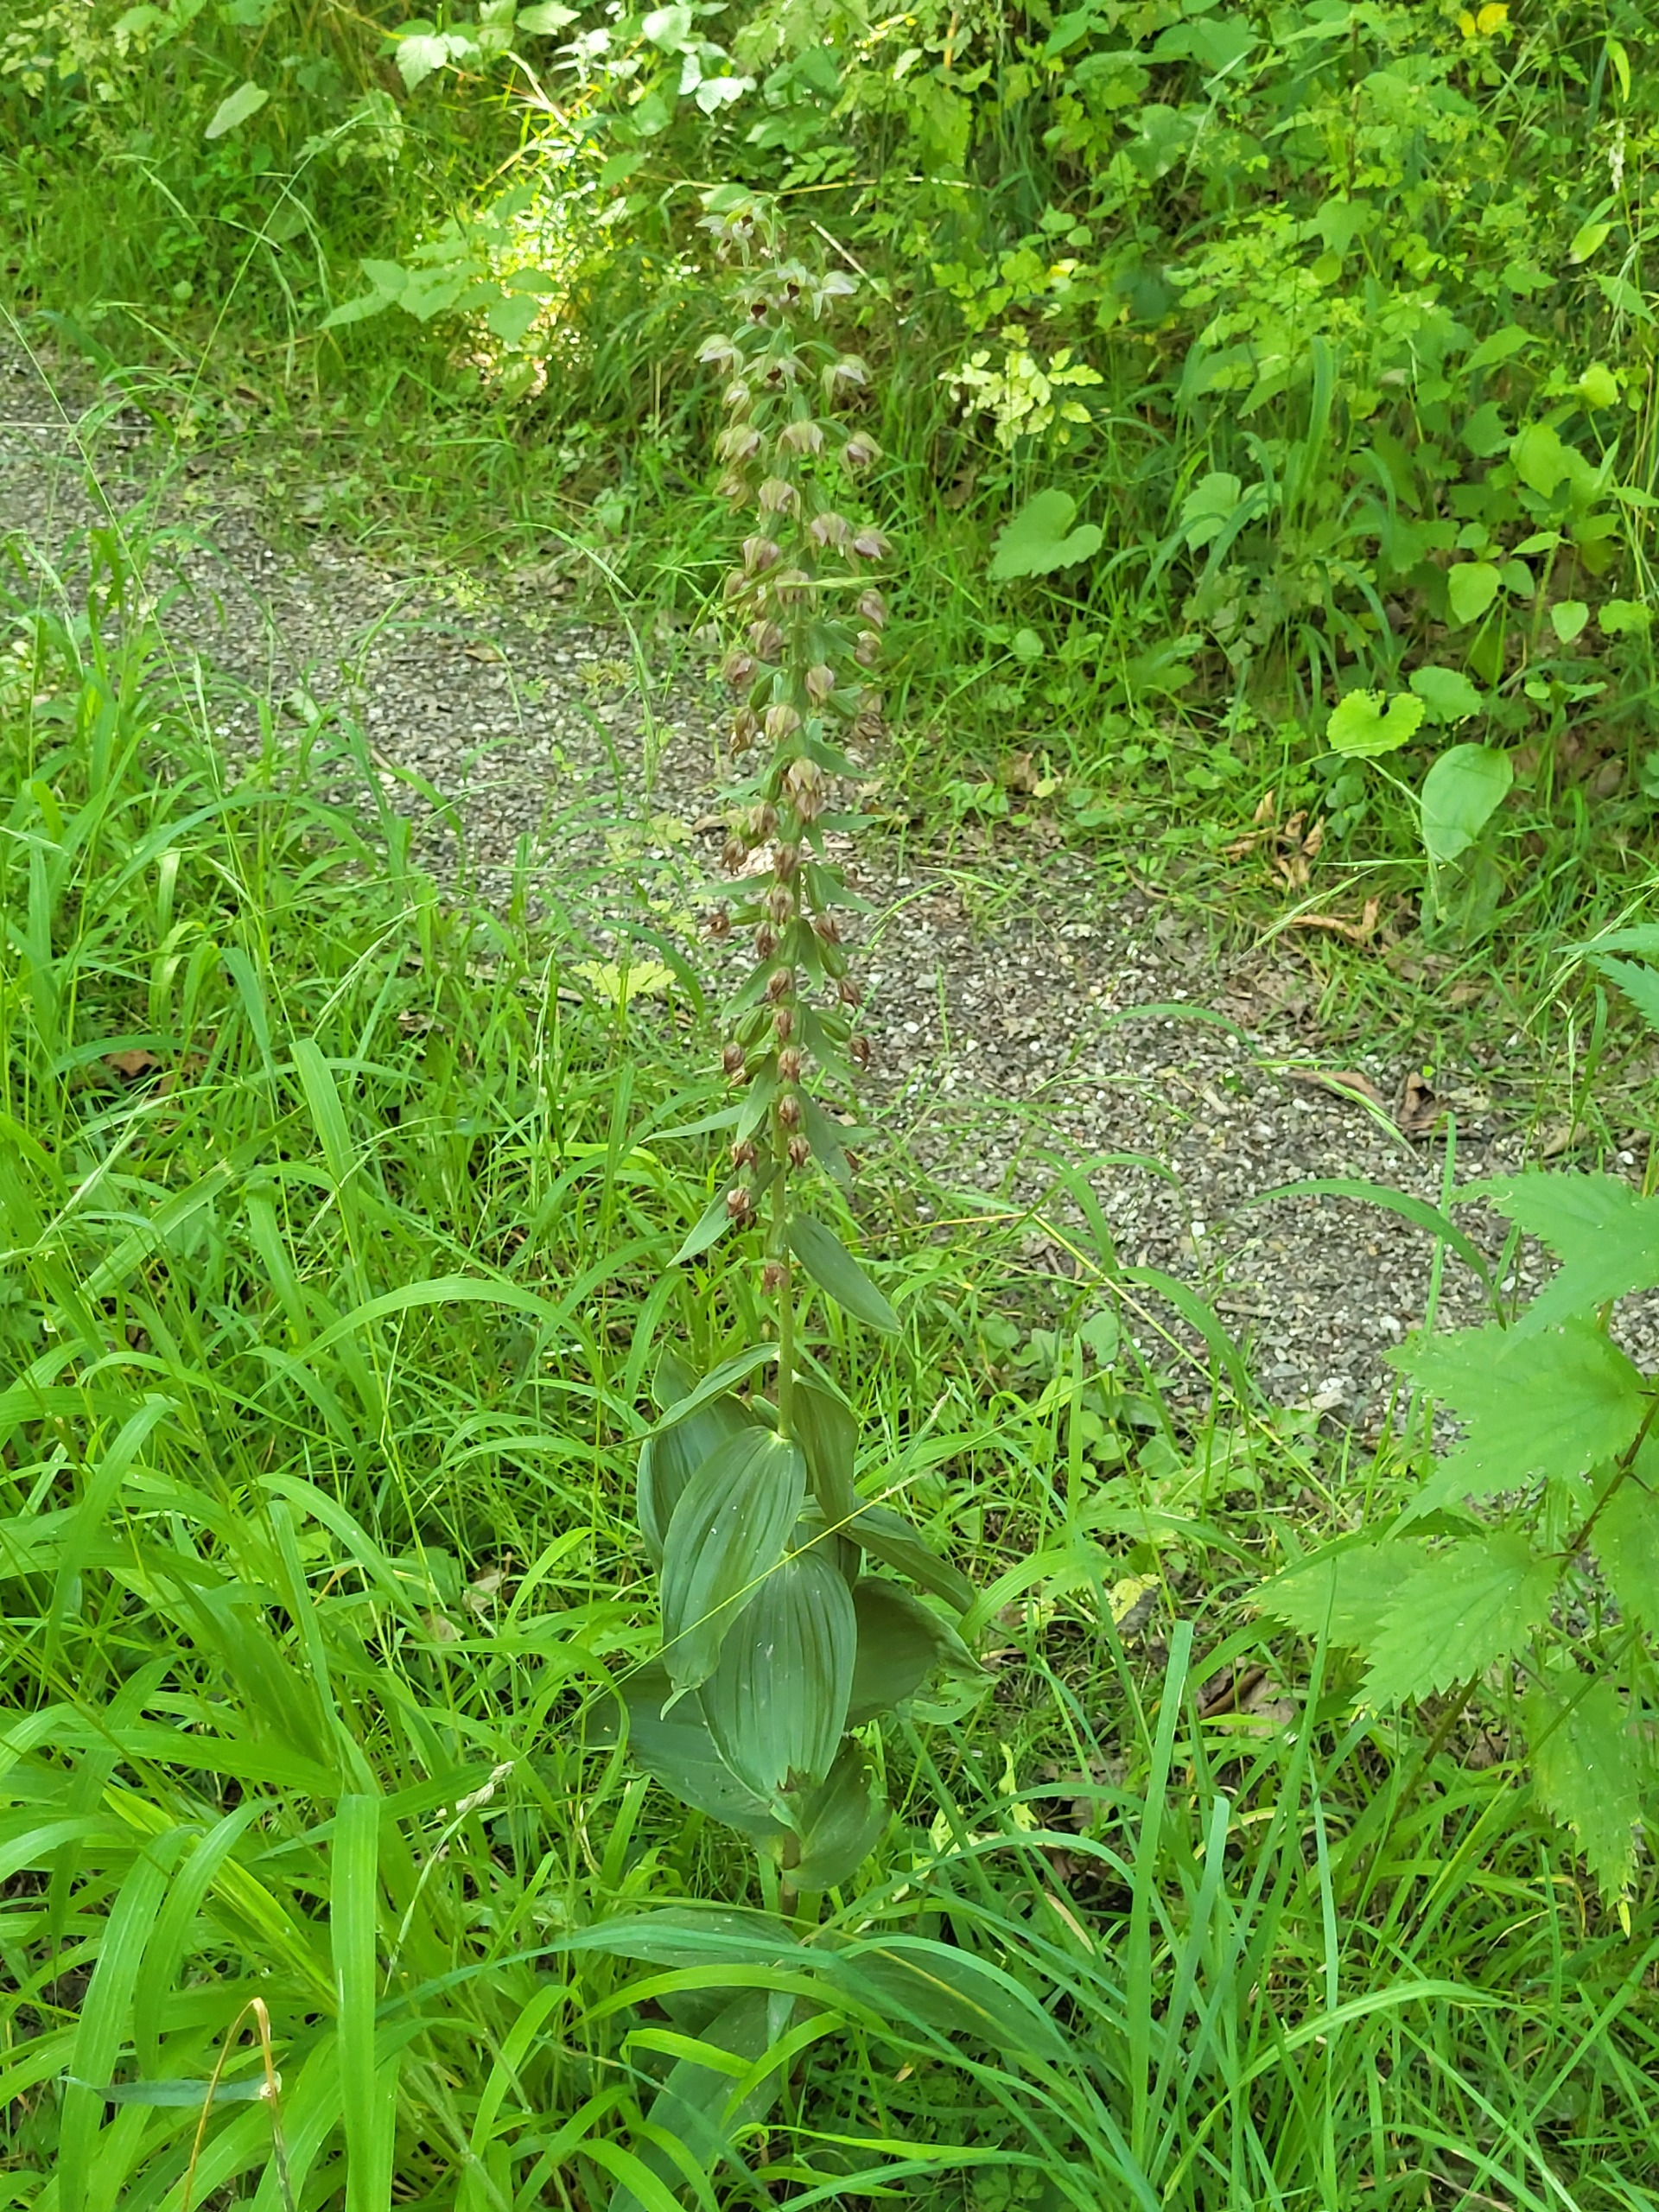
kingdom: Plantae
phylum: Tracheophyta
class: Liliopsida
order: Asparagales
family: Orchidaceae
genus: Epipactis
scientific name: Epipactis helleborine
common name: Skov-hullæbe
